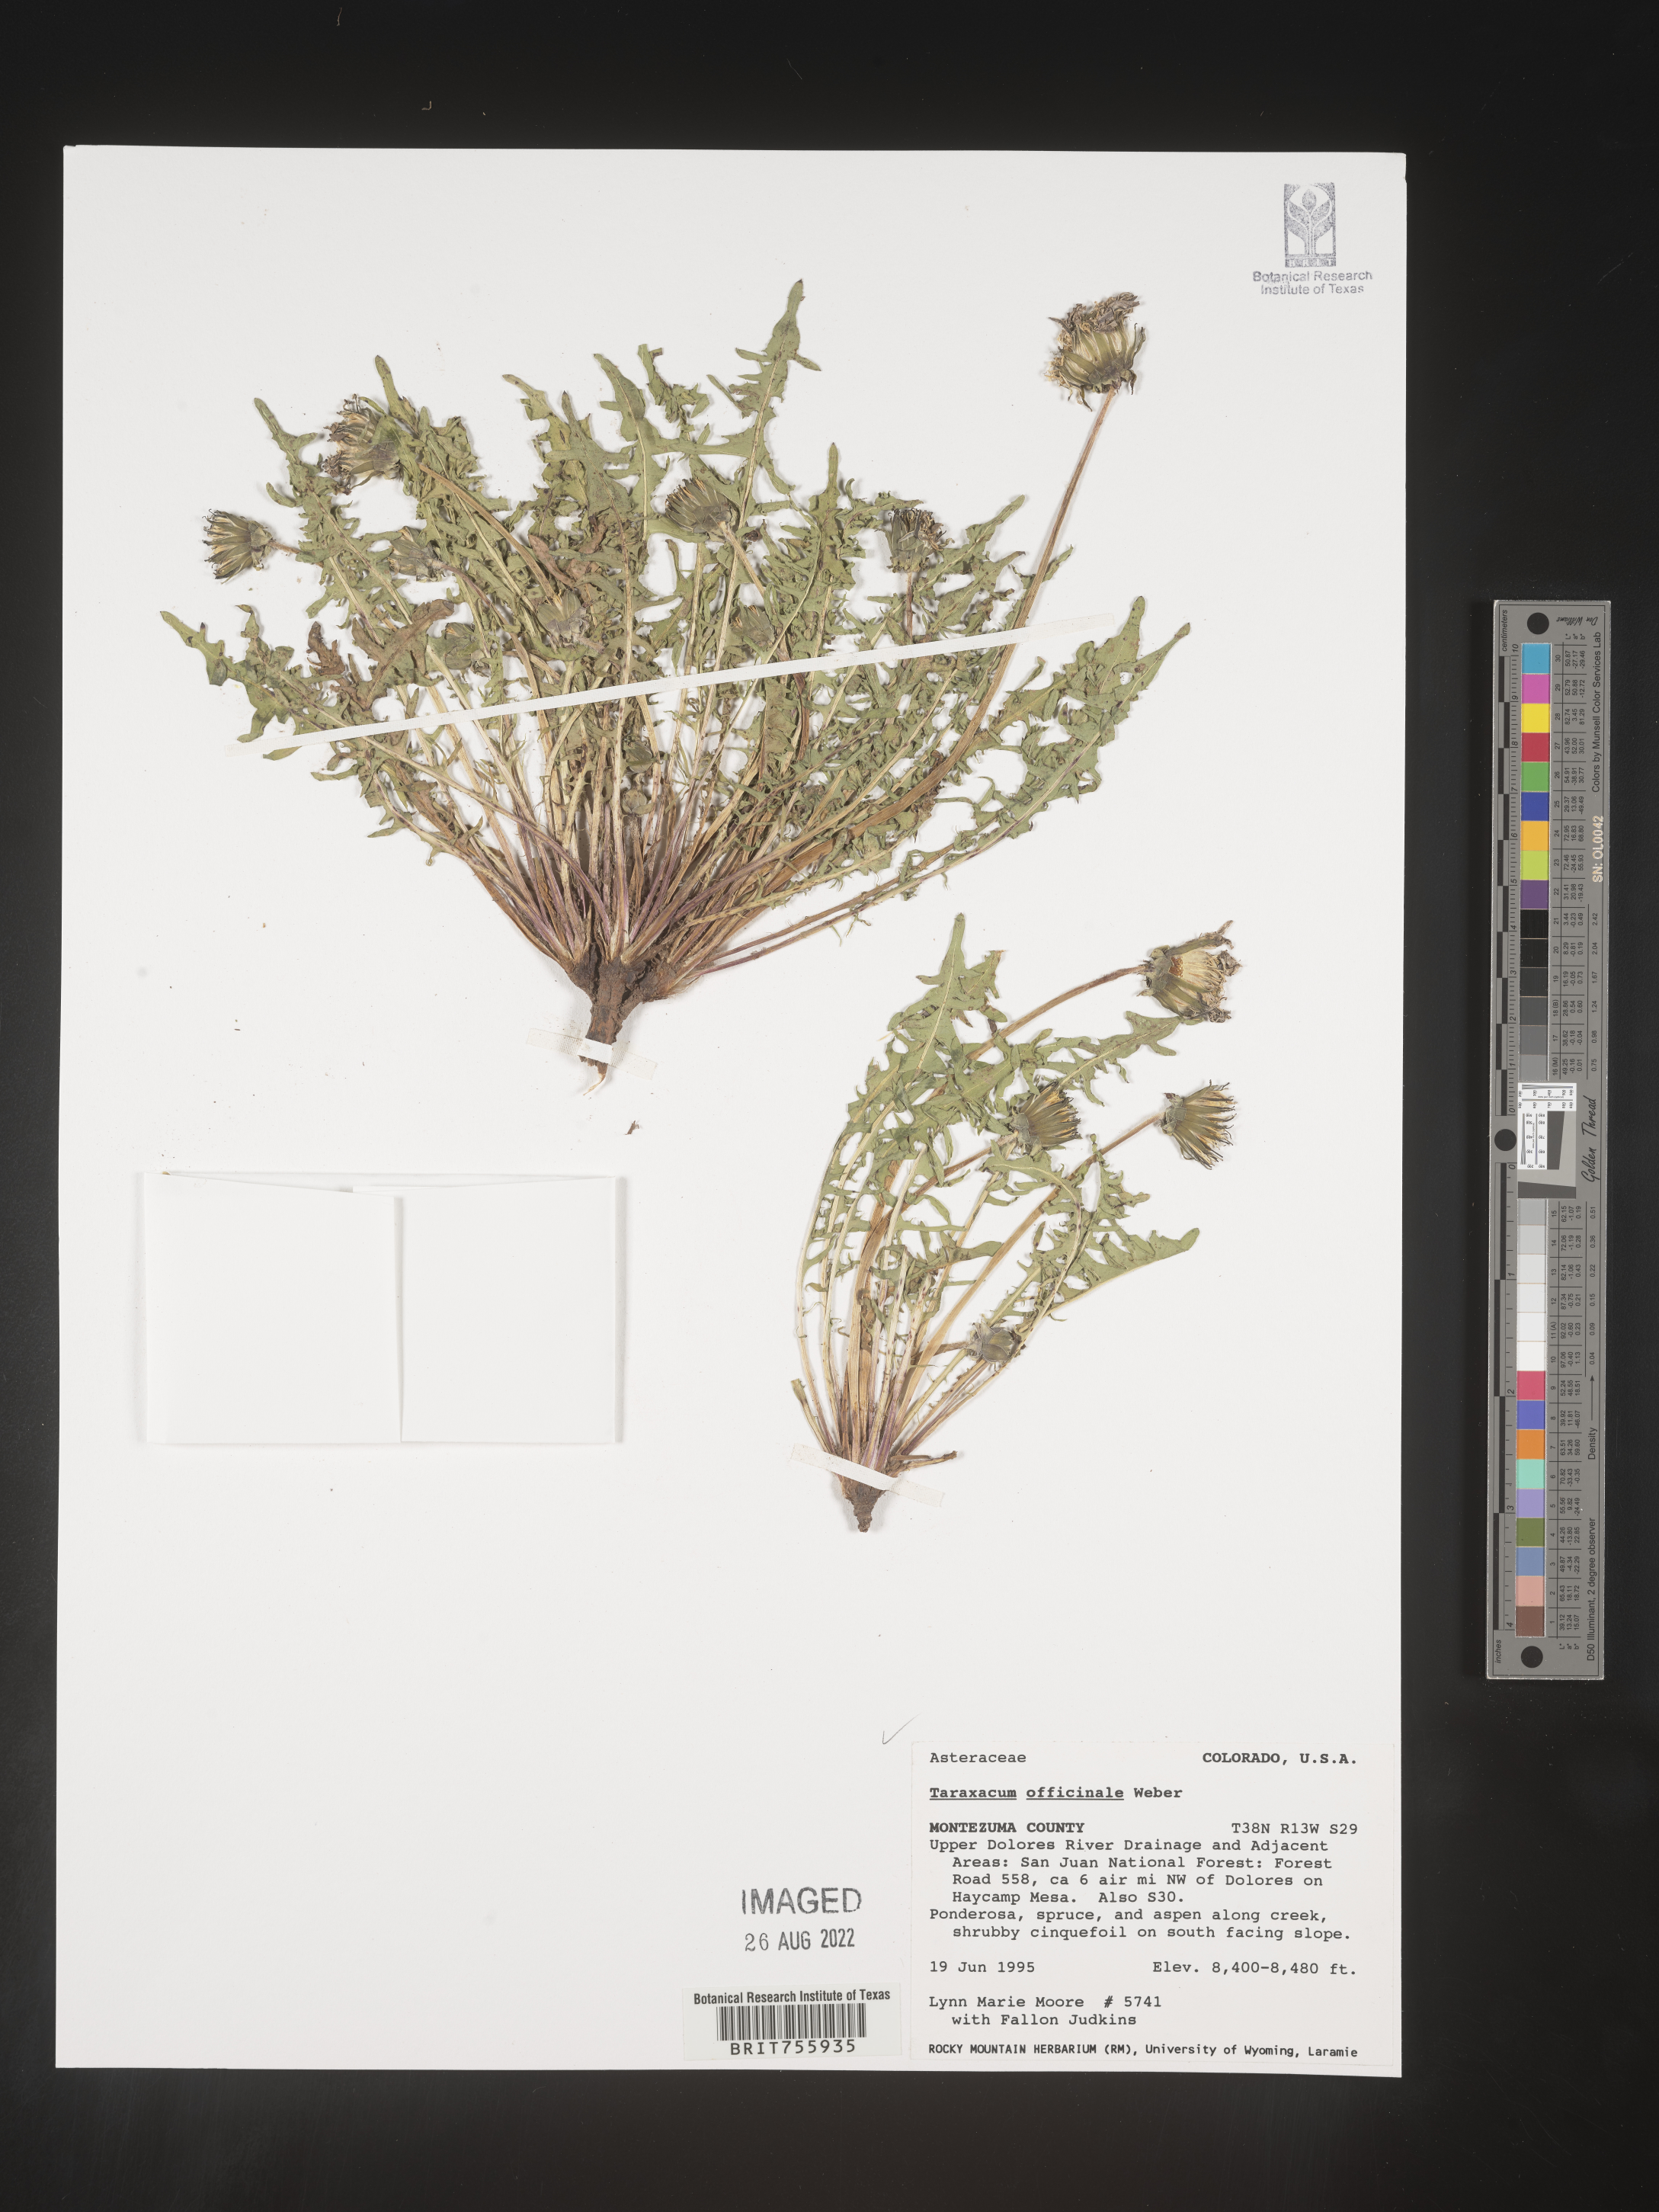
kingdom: Plantae
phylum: Tracheophyta
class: Magnoliopsida
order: Asterales
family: Asteraceae
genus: Taraxacum
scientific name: Taraxacum officinale
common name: Common dandelion
